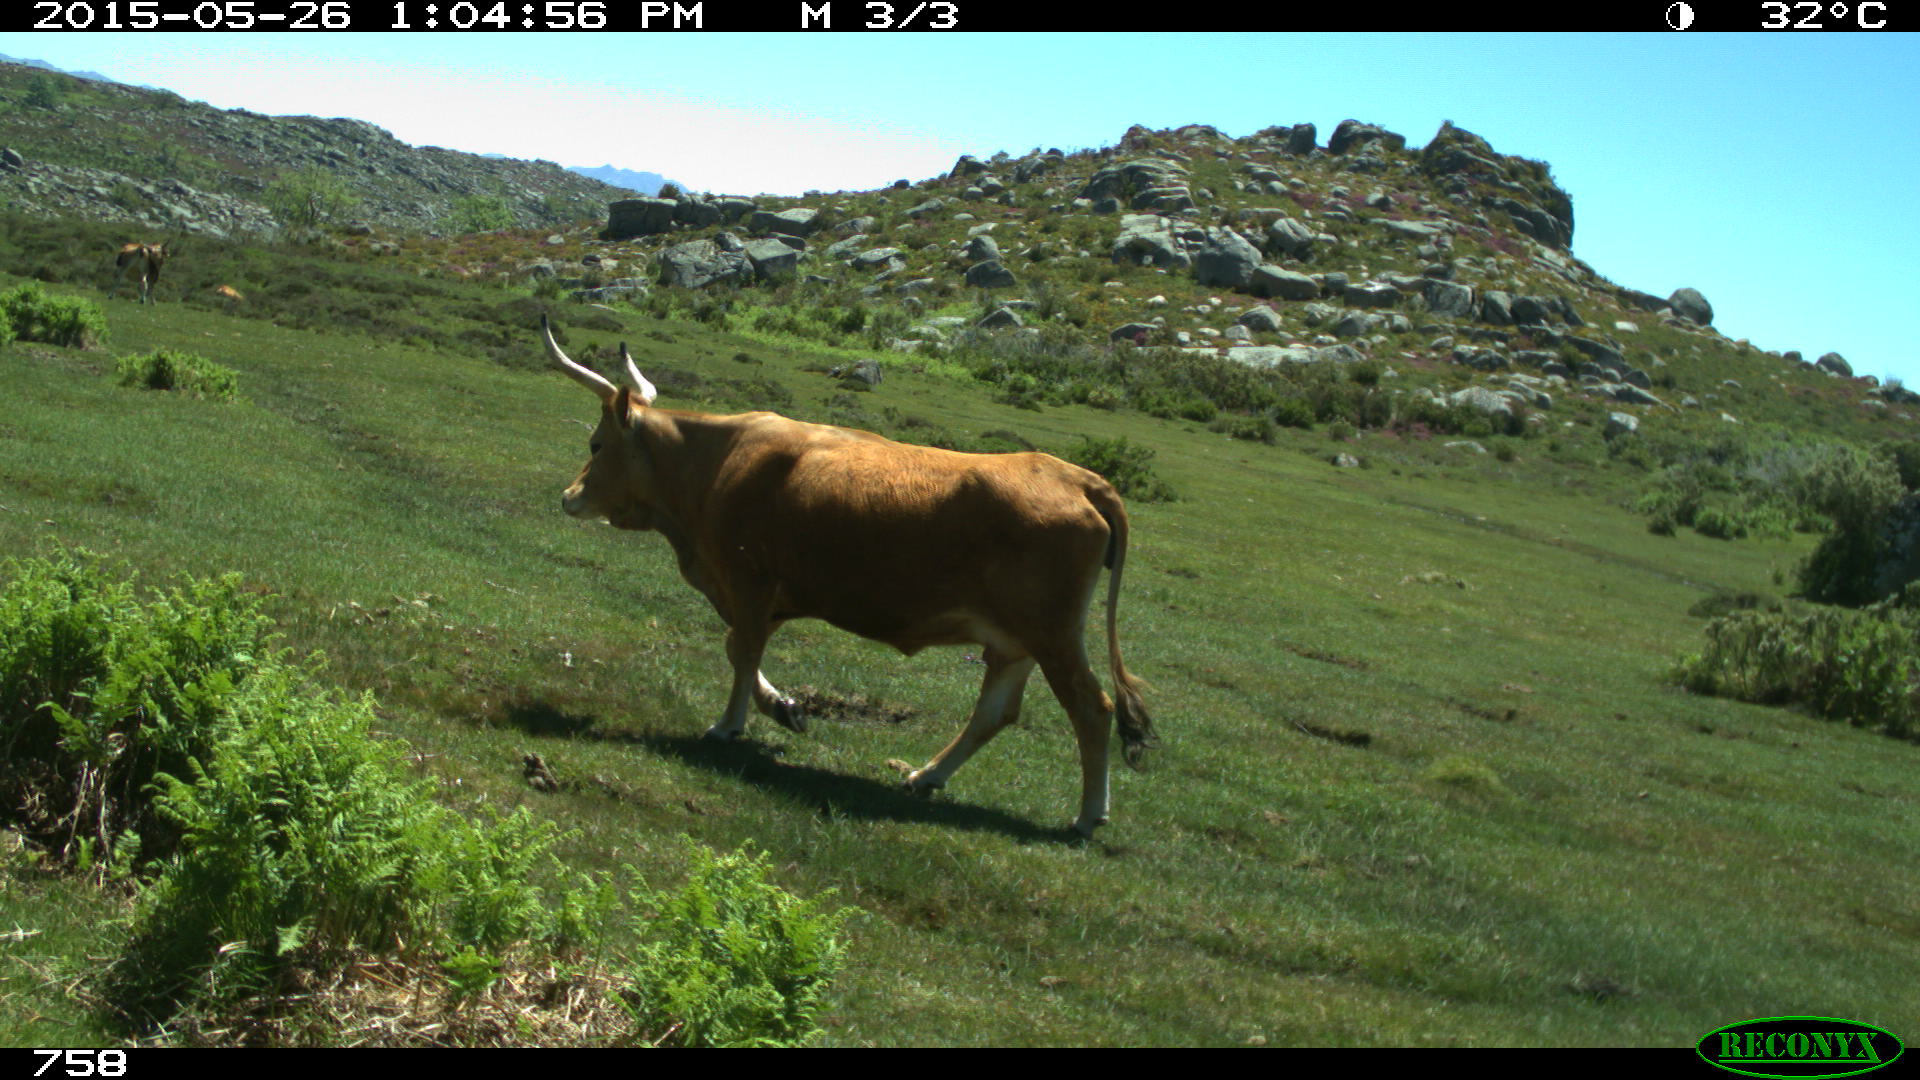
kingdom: Animalia
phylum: Chordata
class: Mammalia
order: Artiodactyla
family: Bovidae
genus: Bos
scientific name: Bos taurus
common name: Domesticated cattle
